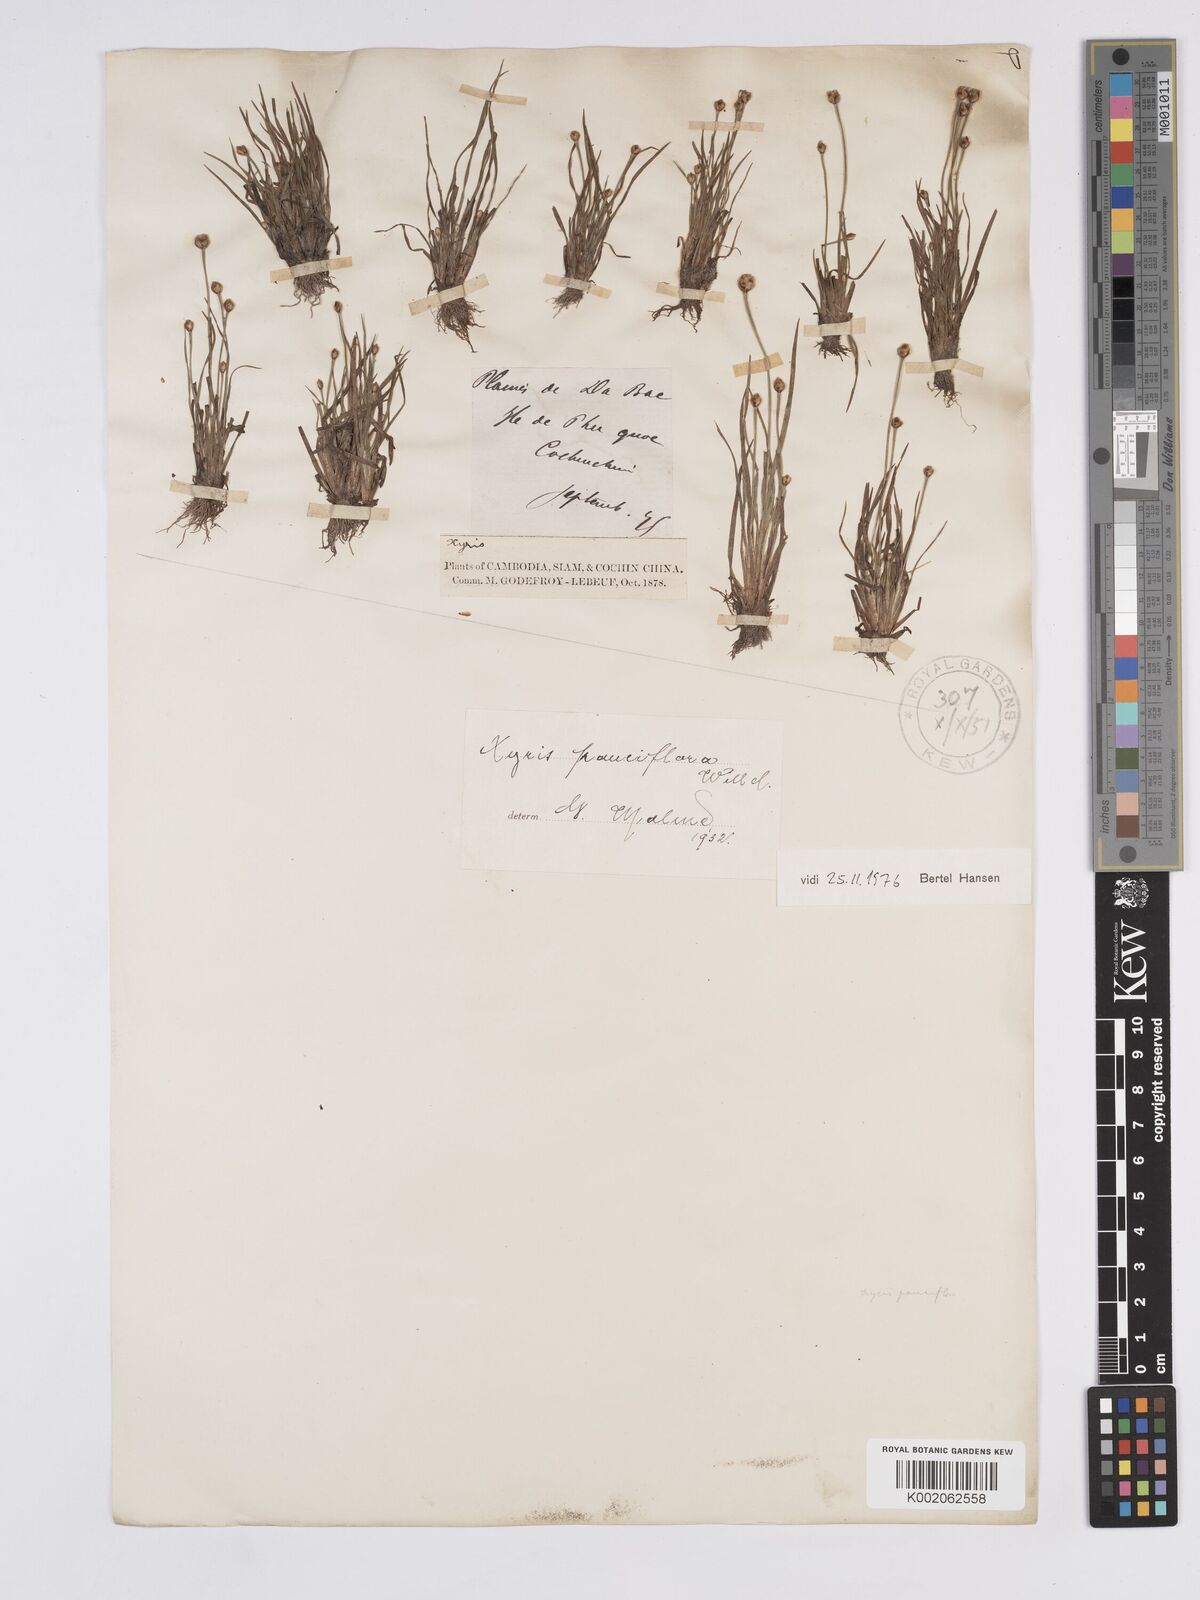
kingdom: Plantae
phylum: Tracheophyta
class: Liliopsida
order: Poales
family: Xyridaceae
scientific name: Xyridaceae
